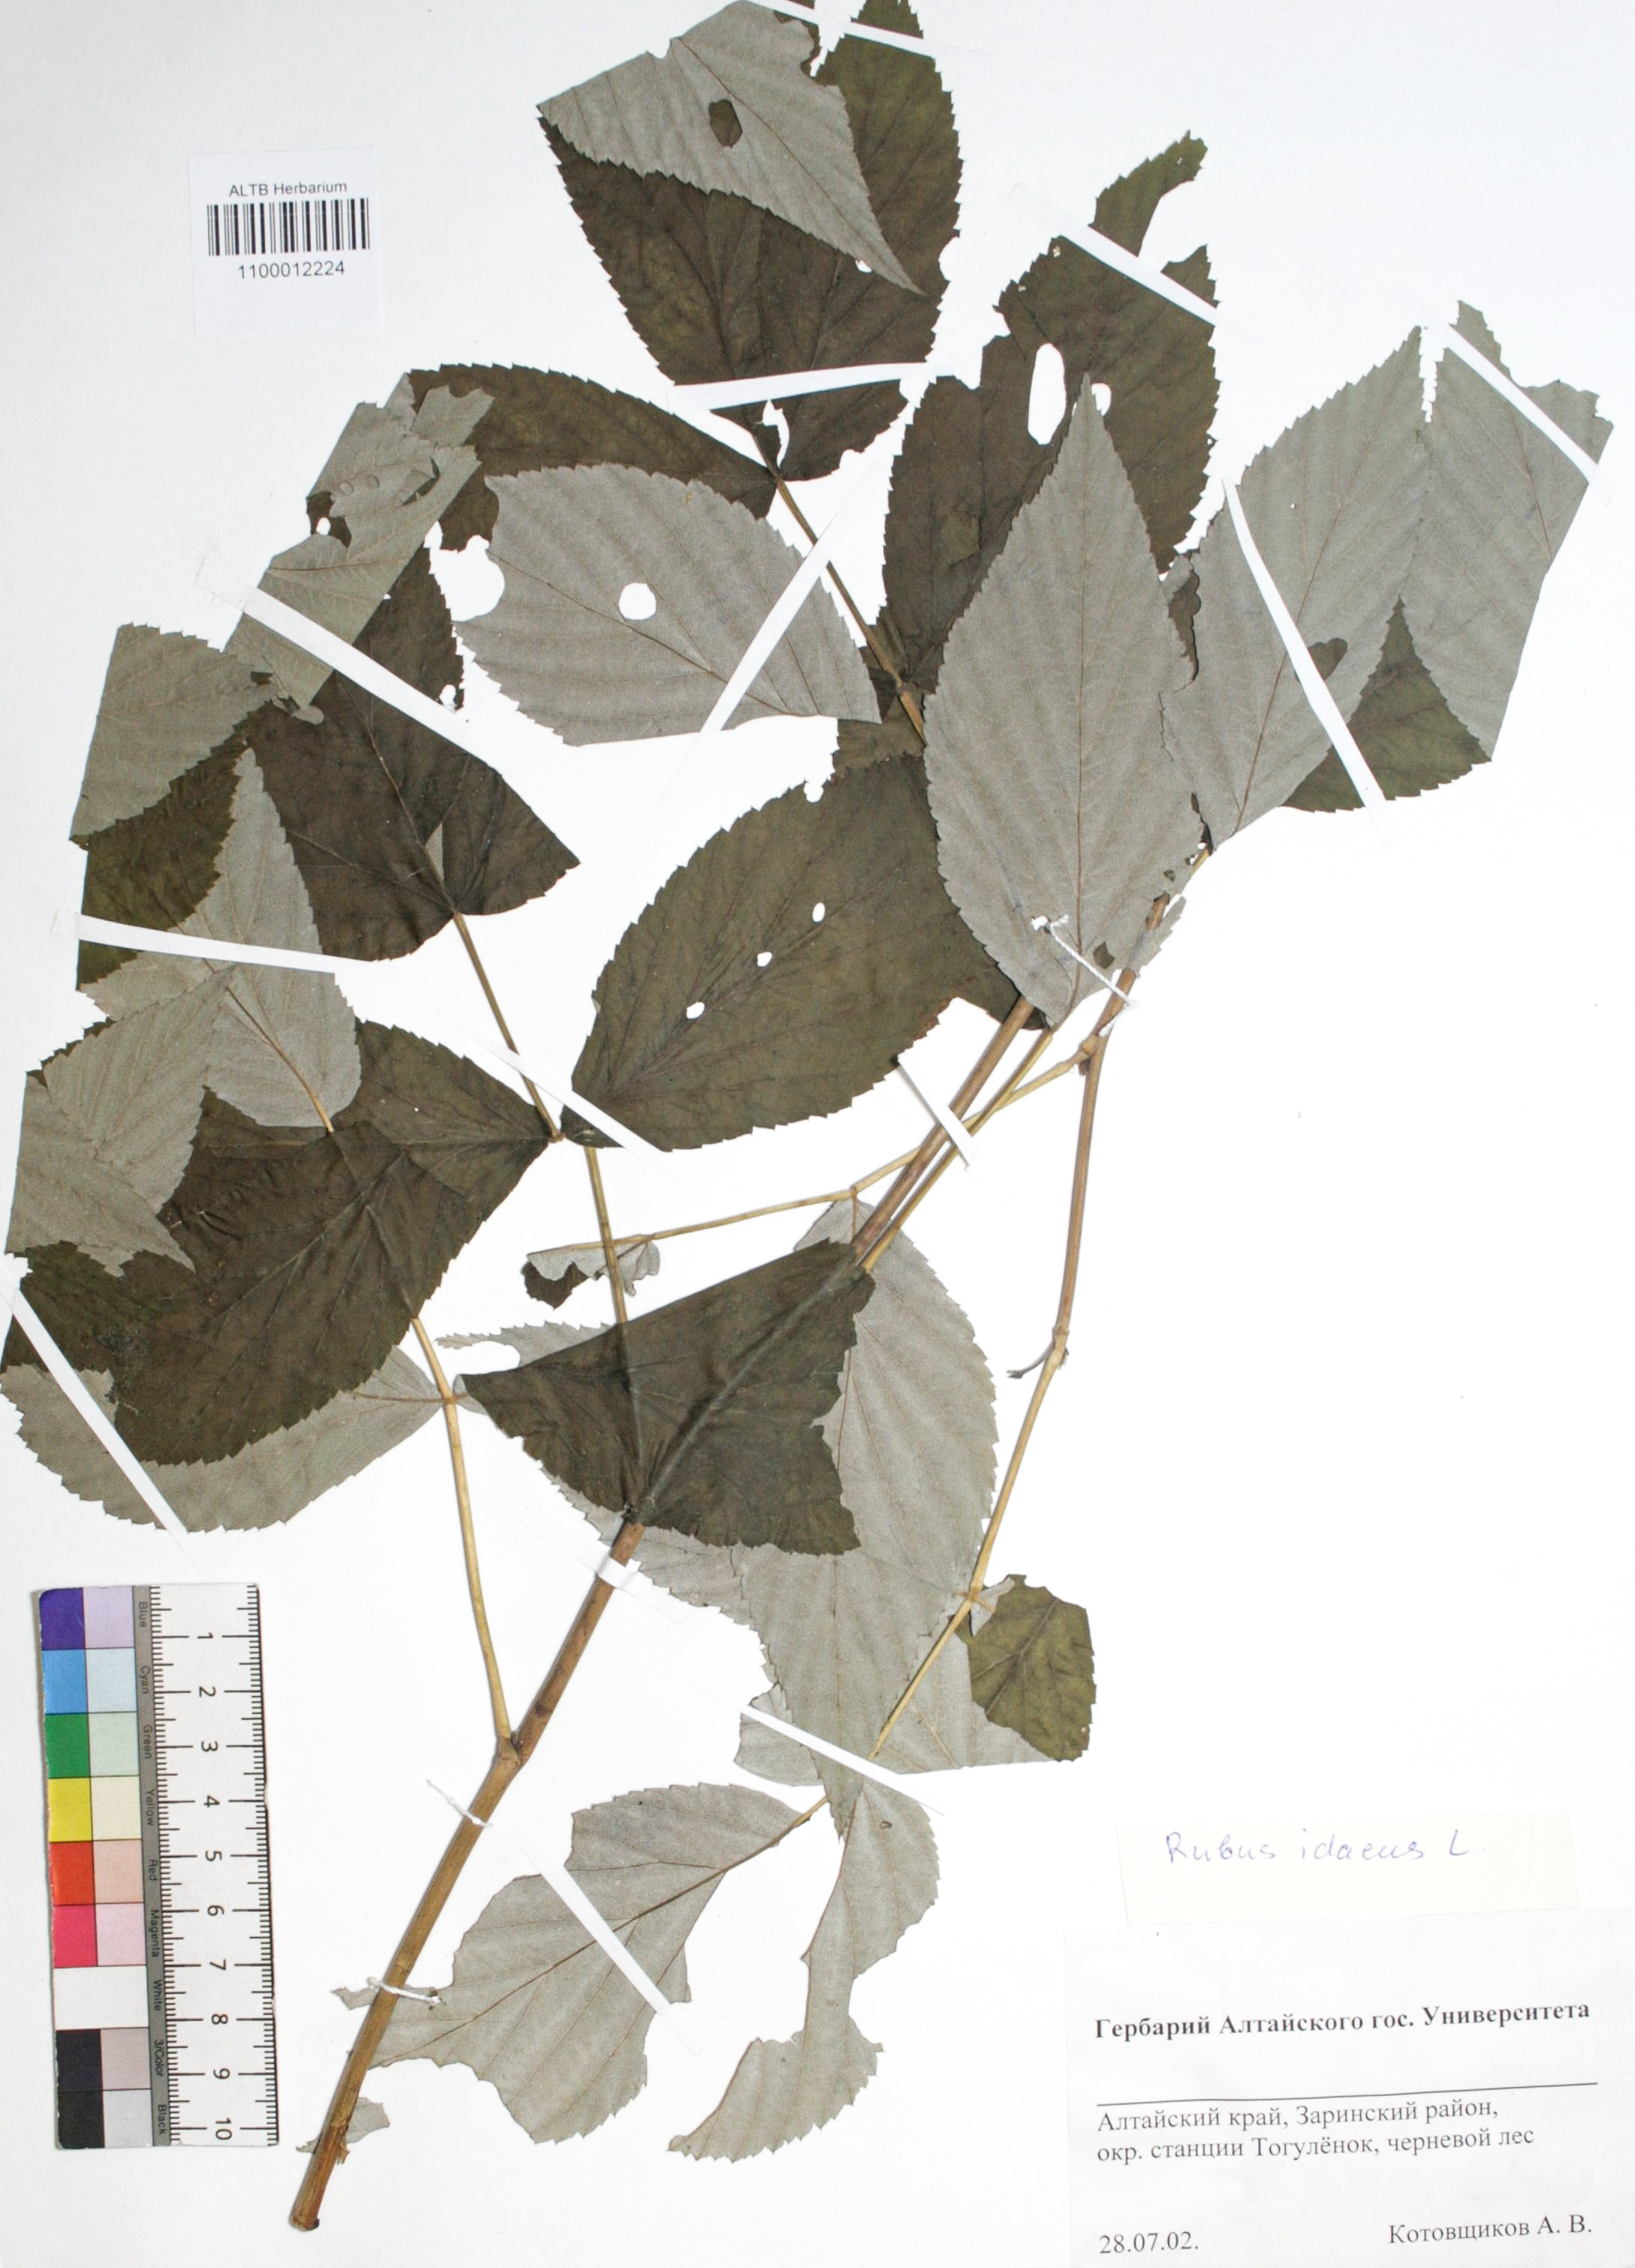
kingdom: Plantae
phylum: Tracheophyta
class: Magnoliopsida
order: Rosales
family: Rosaceae
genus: Rubus
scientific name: Rubus idaeus
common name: Raspberry
